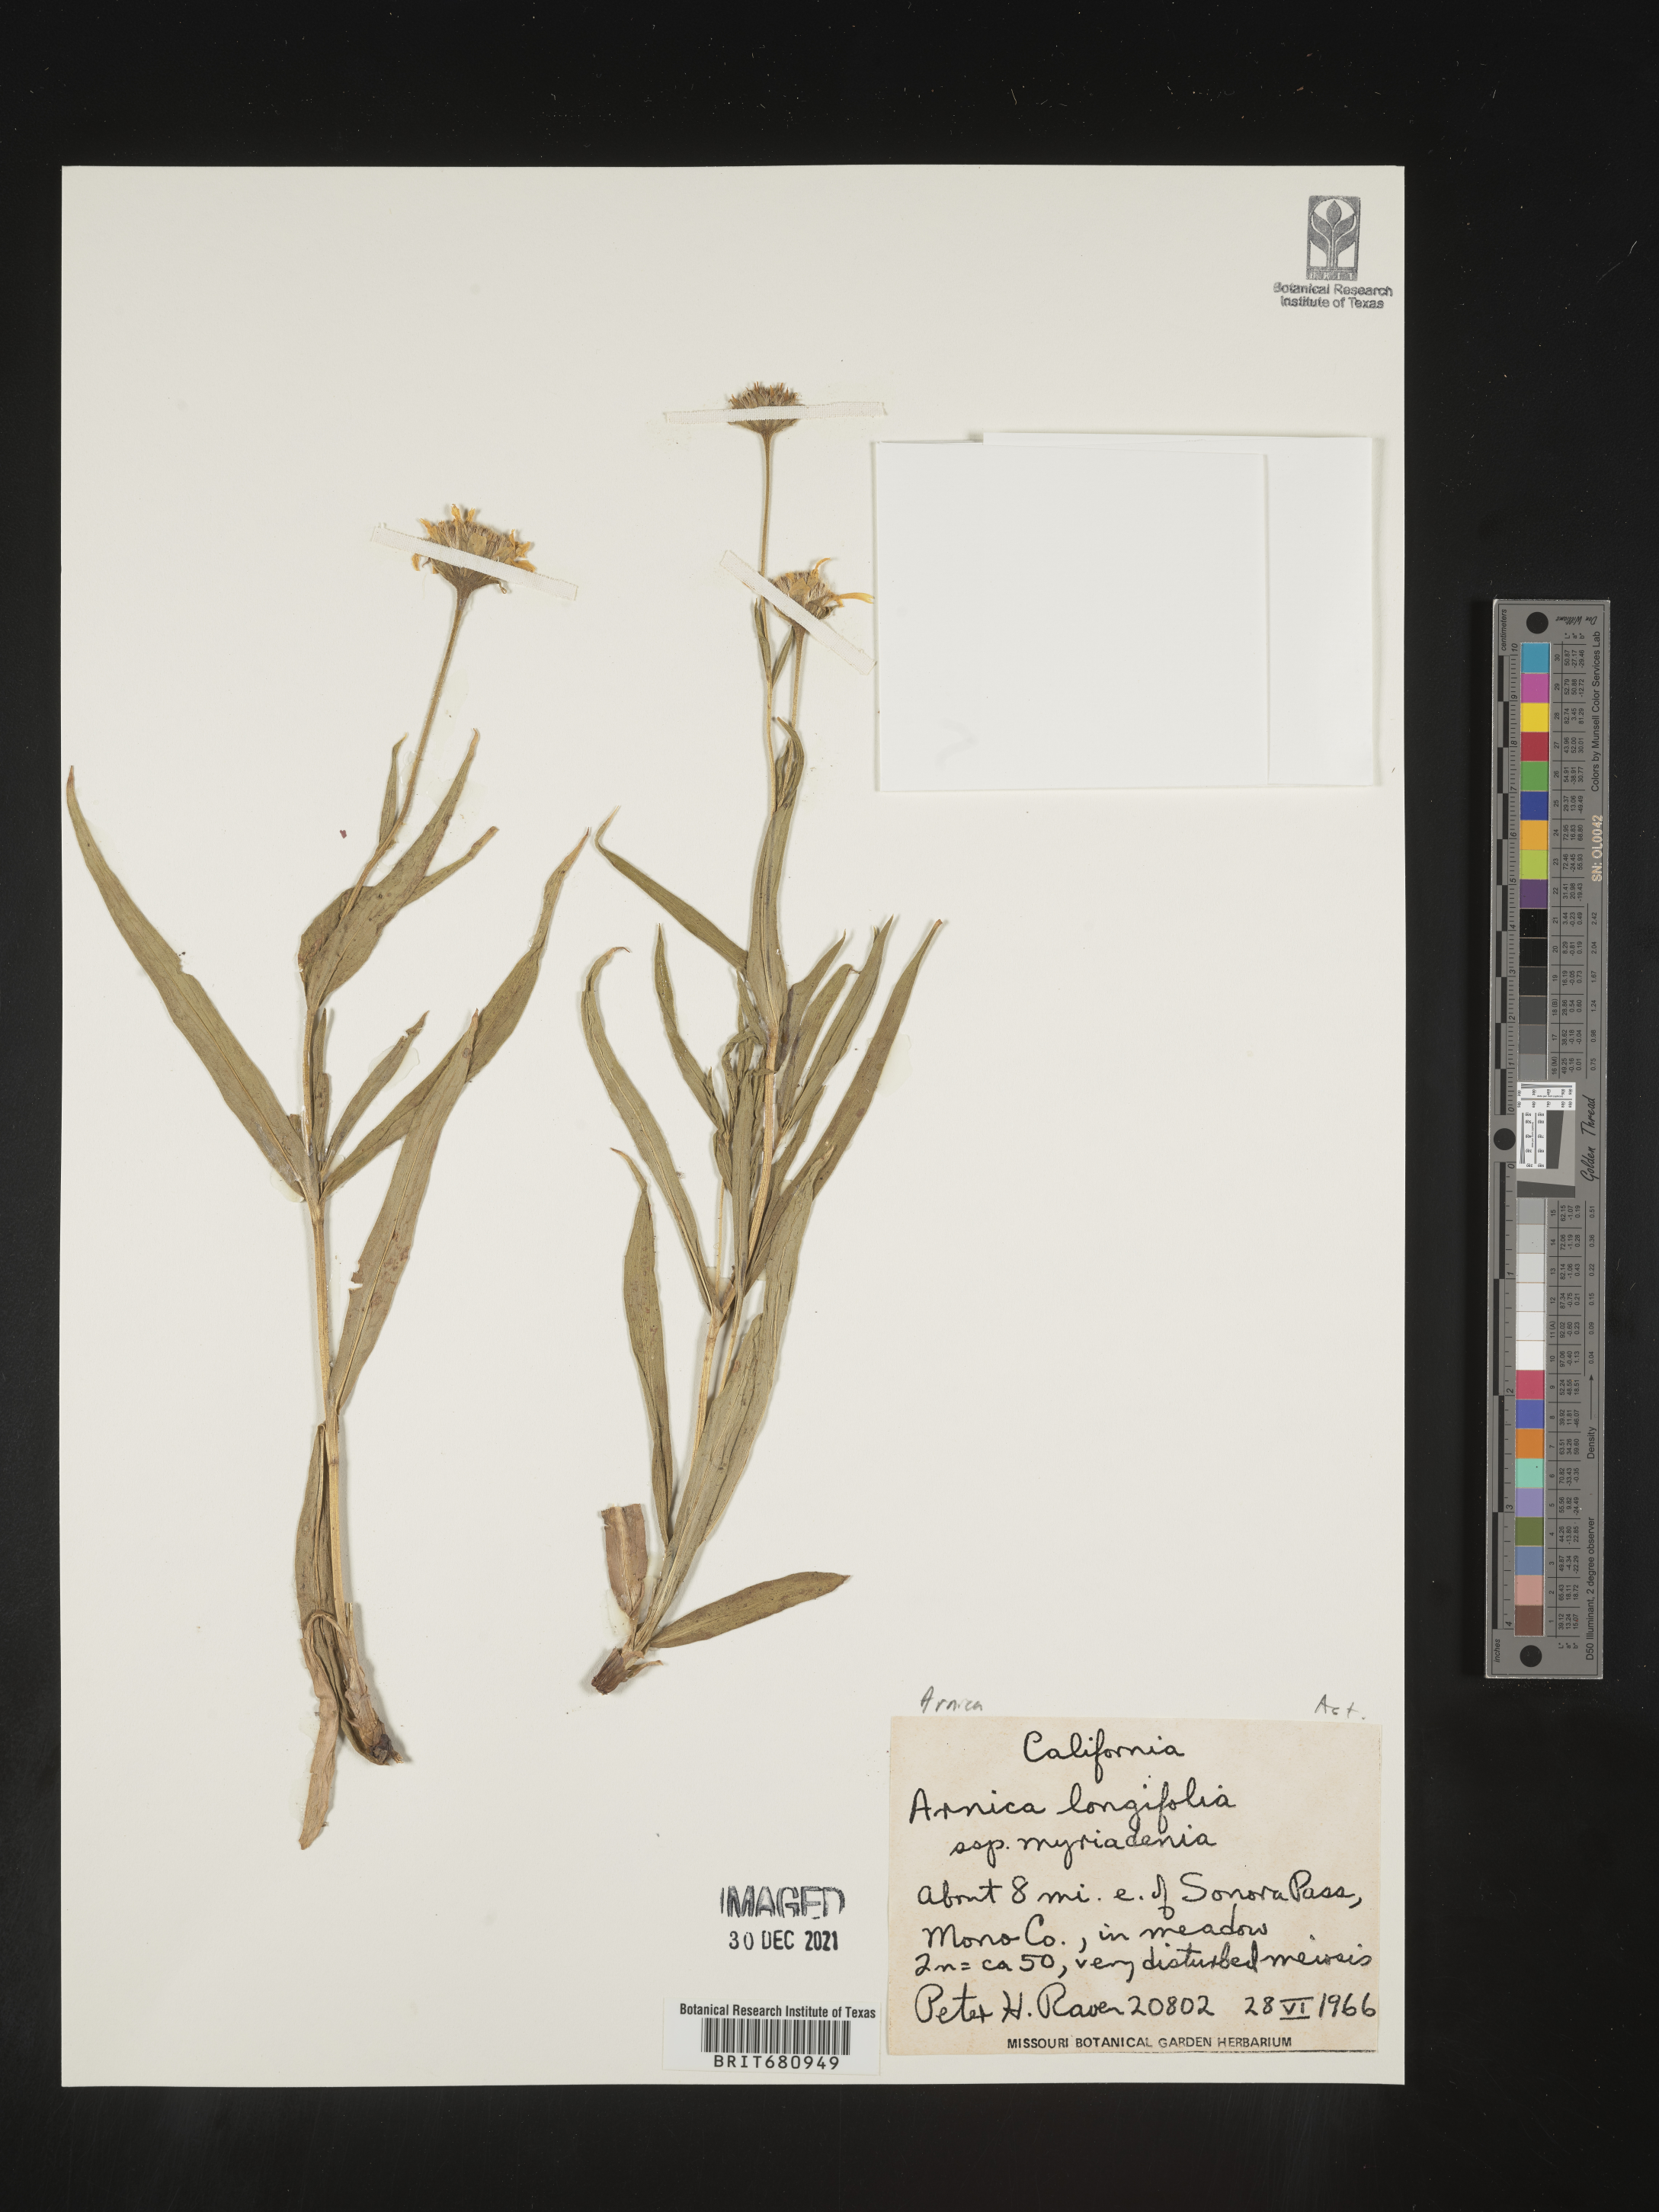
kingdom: Plantae
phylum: Tracheophyta
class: Magnoliopsida
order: Asterales
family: Asteraceae
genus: Arnica
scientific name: Arnica longifolia
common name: Spear-leaf arnica
